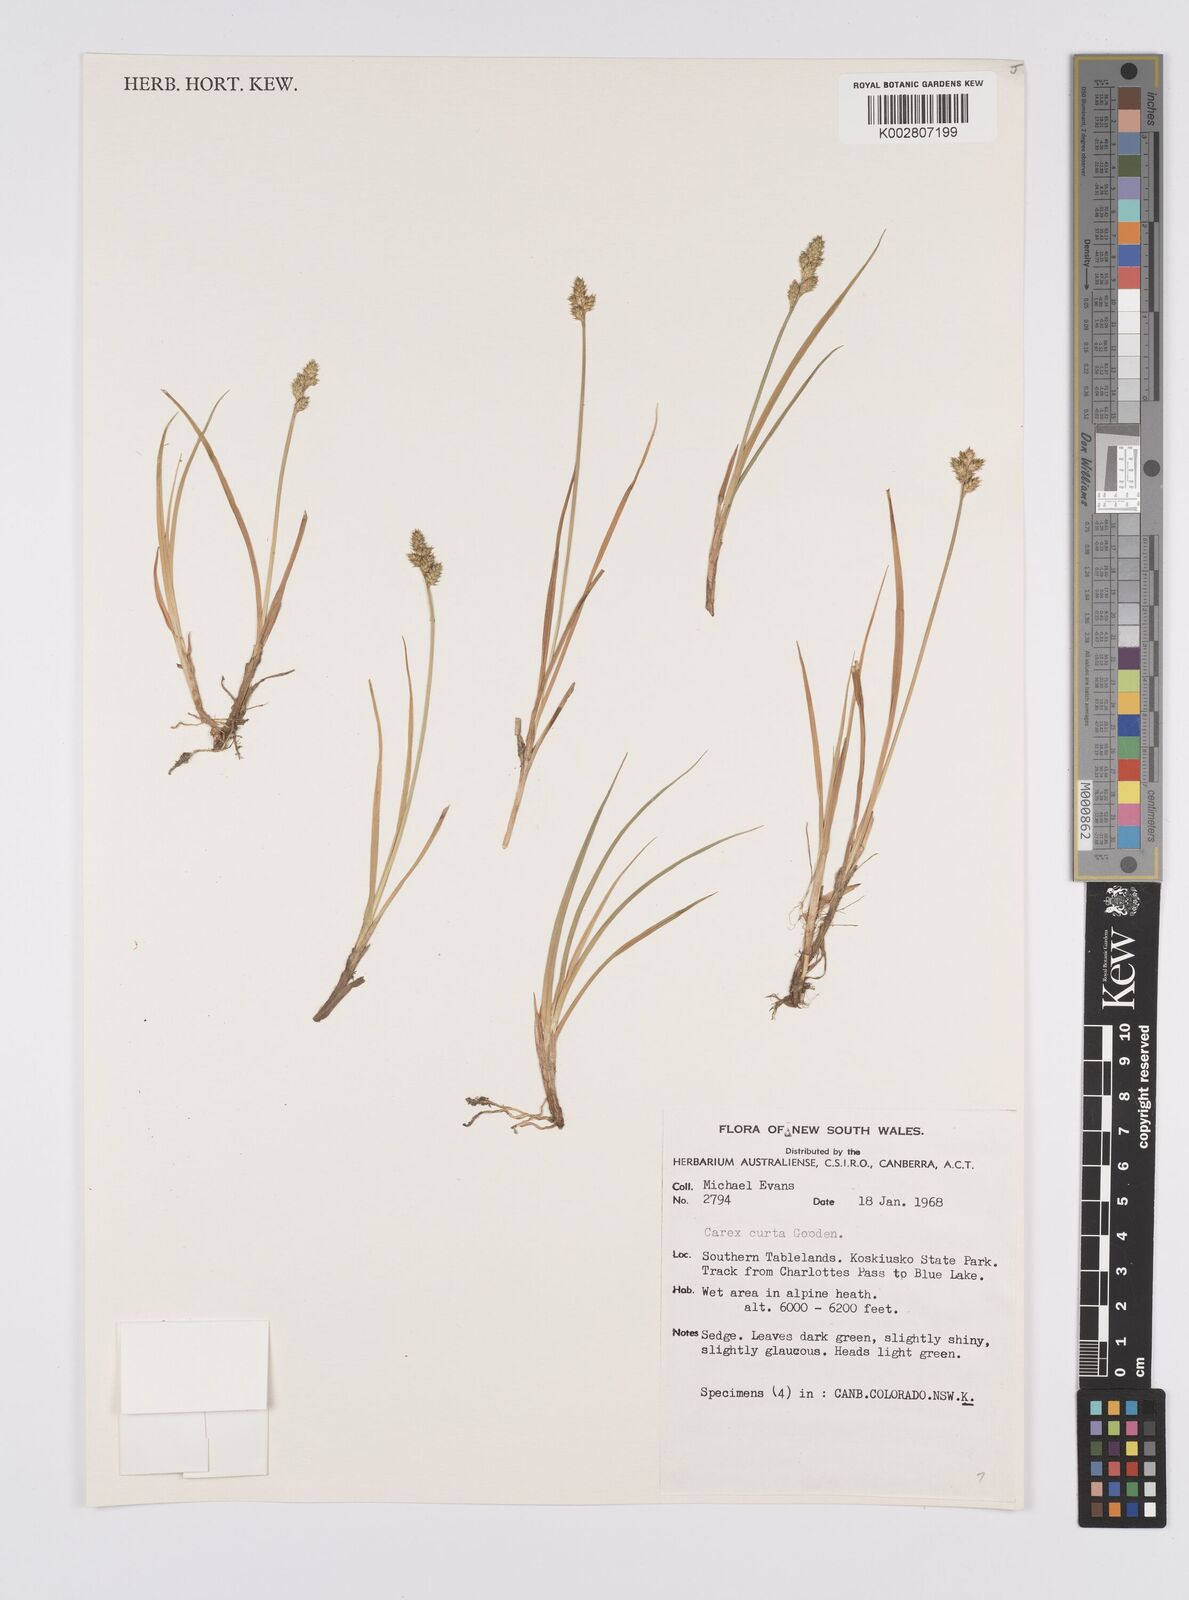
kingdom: Plantae
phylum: Tracheophyta
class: Liliopsida
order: Poales
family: Cyperaceae
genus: Carex
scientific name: Carex curta
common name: White sedge
